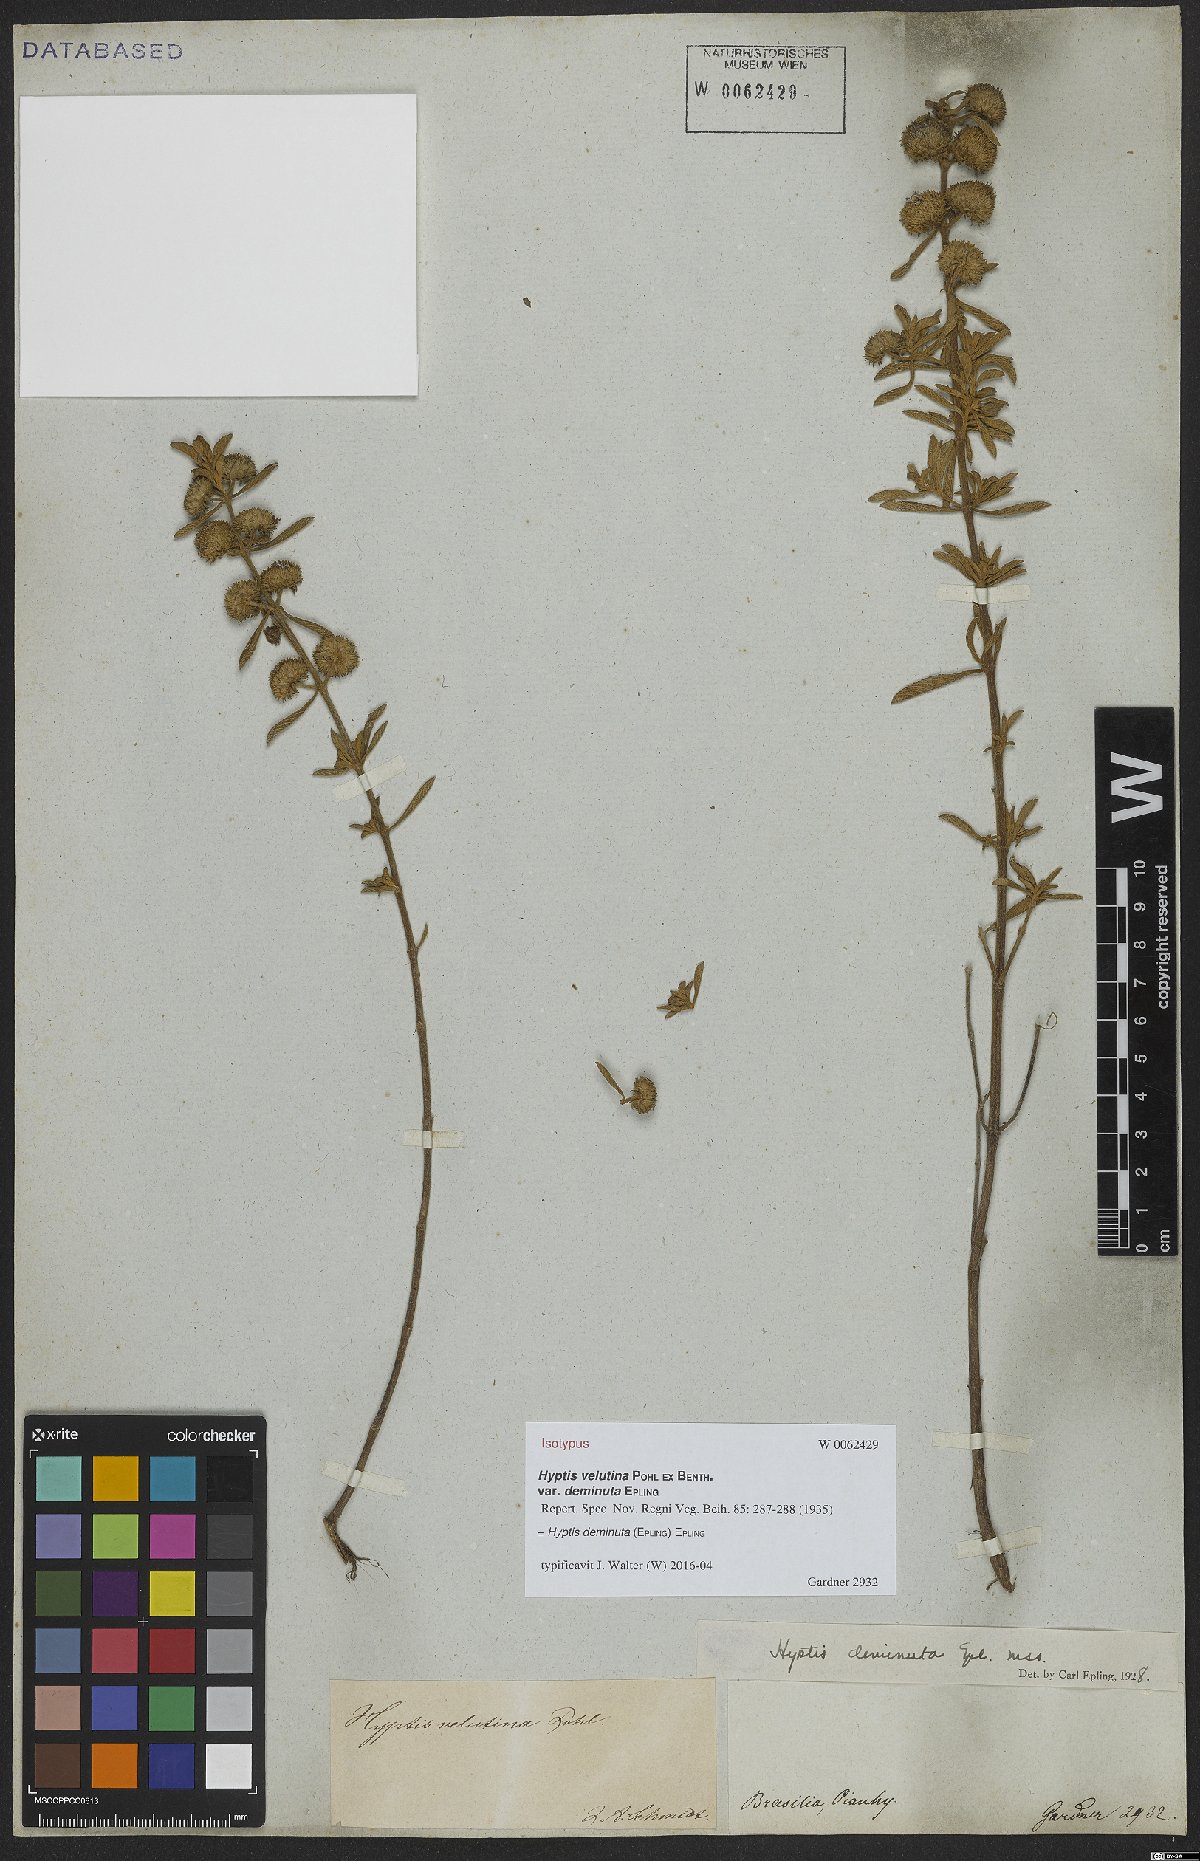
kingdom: Plantae
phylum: Tracheophyta
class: Magnoliopsida
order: Lamiales
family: Lamiaceae
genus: Hyptis
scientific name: Hyptis deminuta
